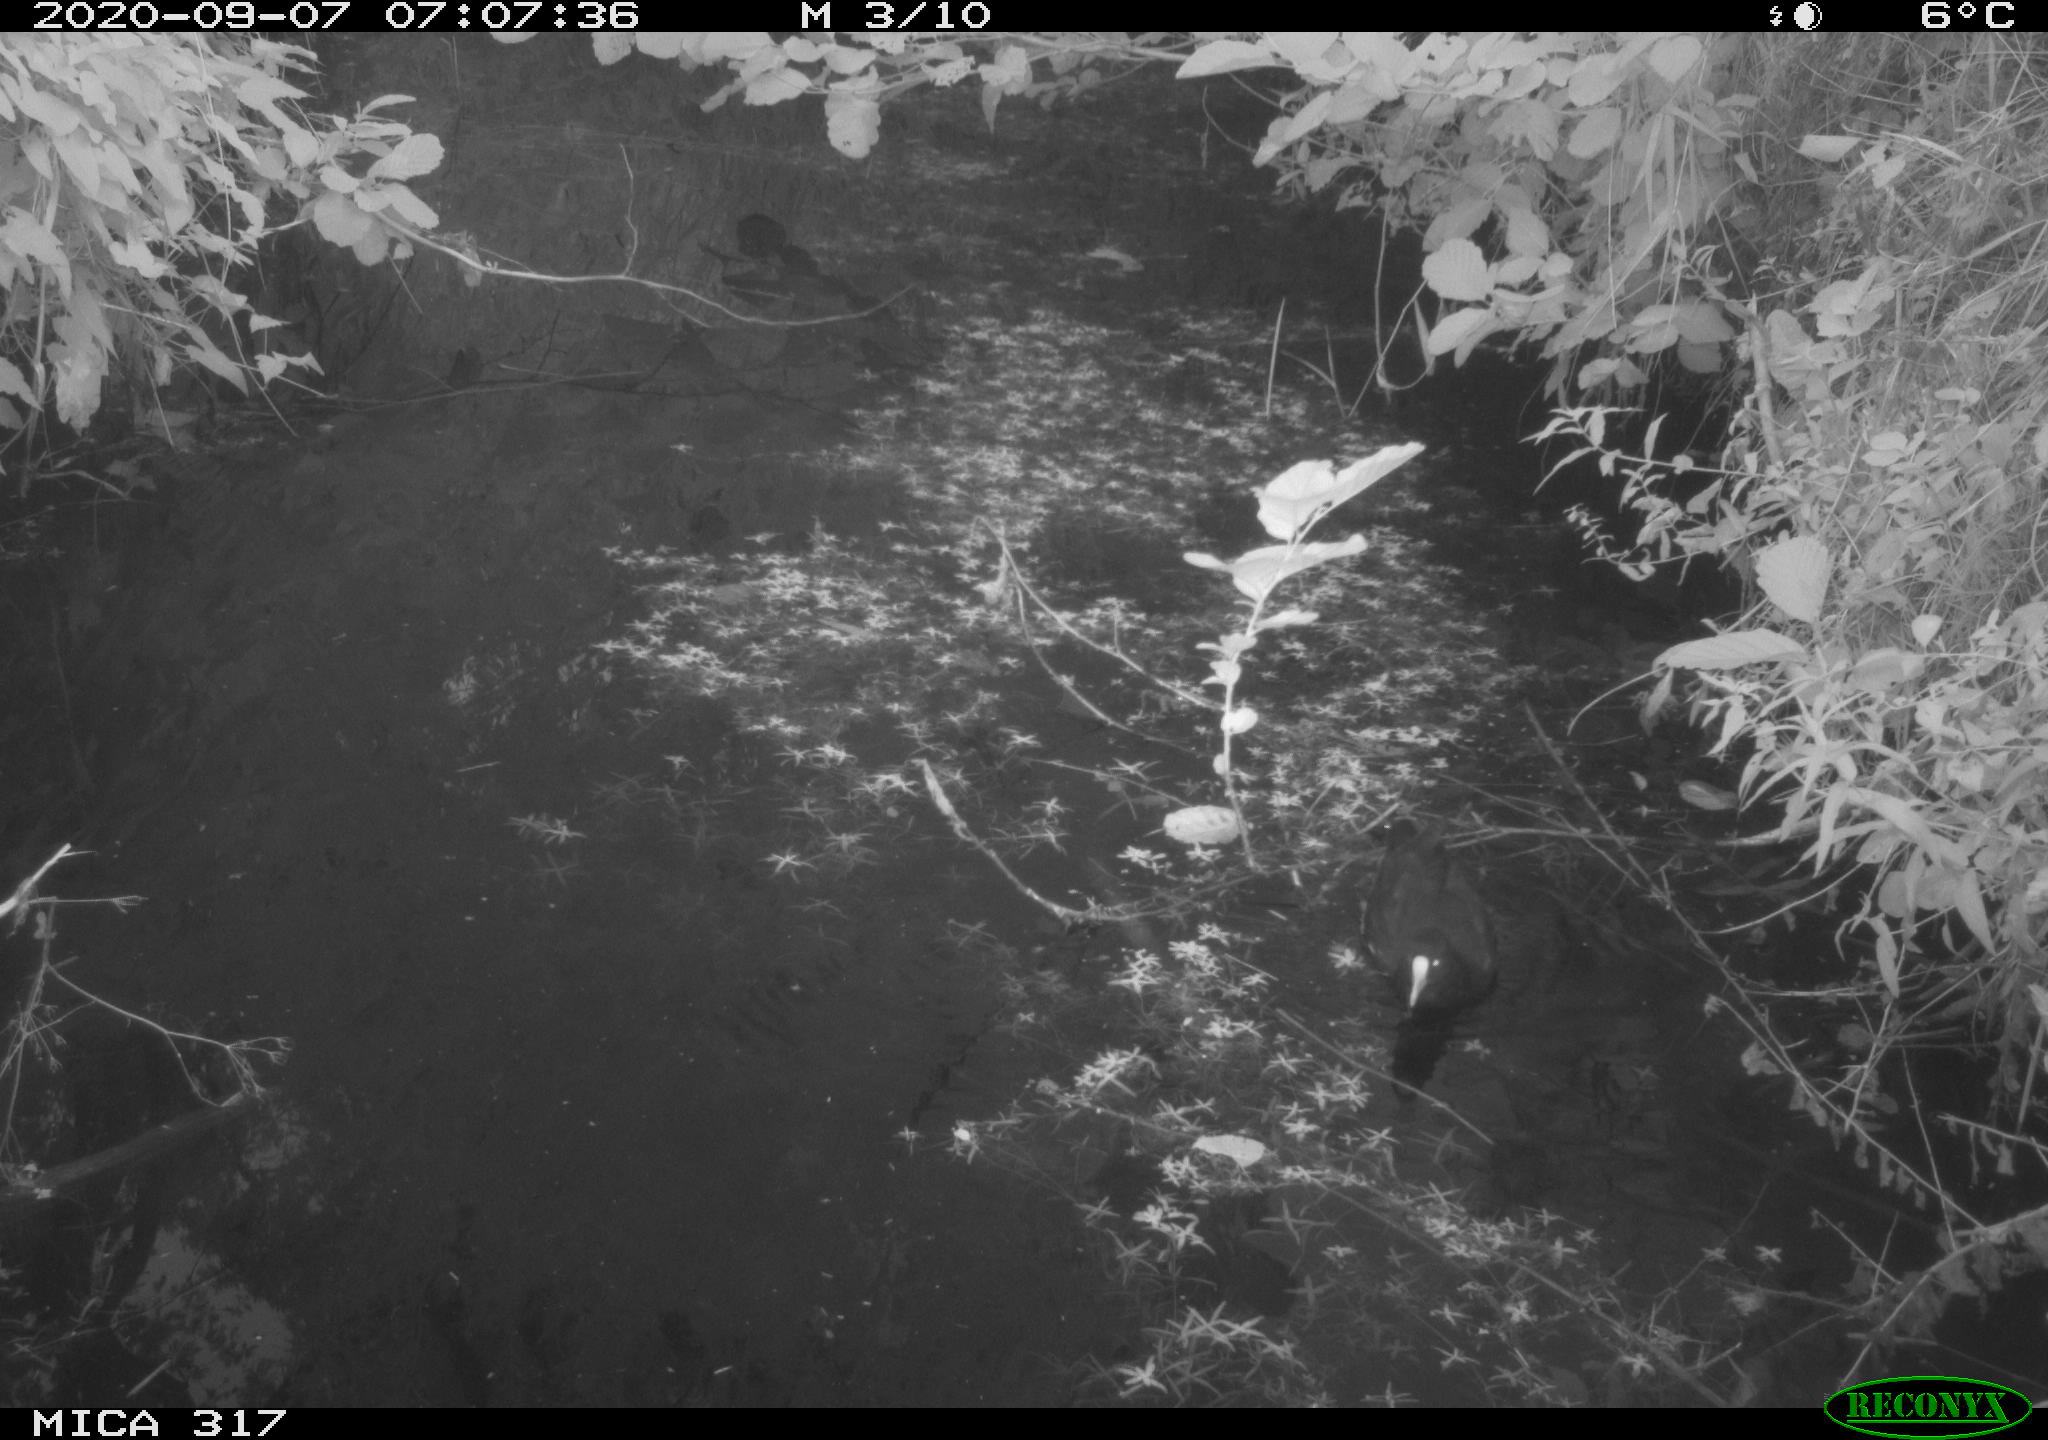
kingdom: Animalia
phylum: Chordata
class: Aves
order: Gruiformes
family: Rallidae
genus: Gallinula
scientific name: Gallinula chloropus
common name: Common moorhen
